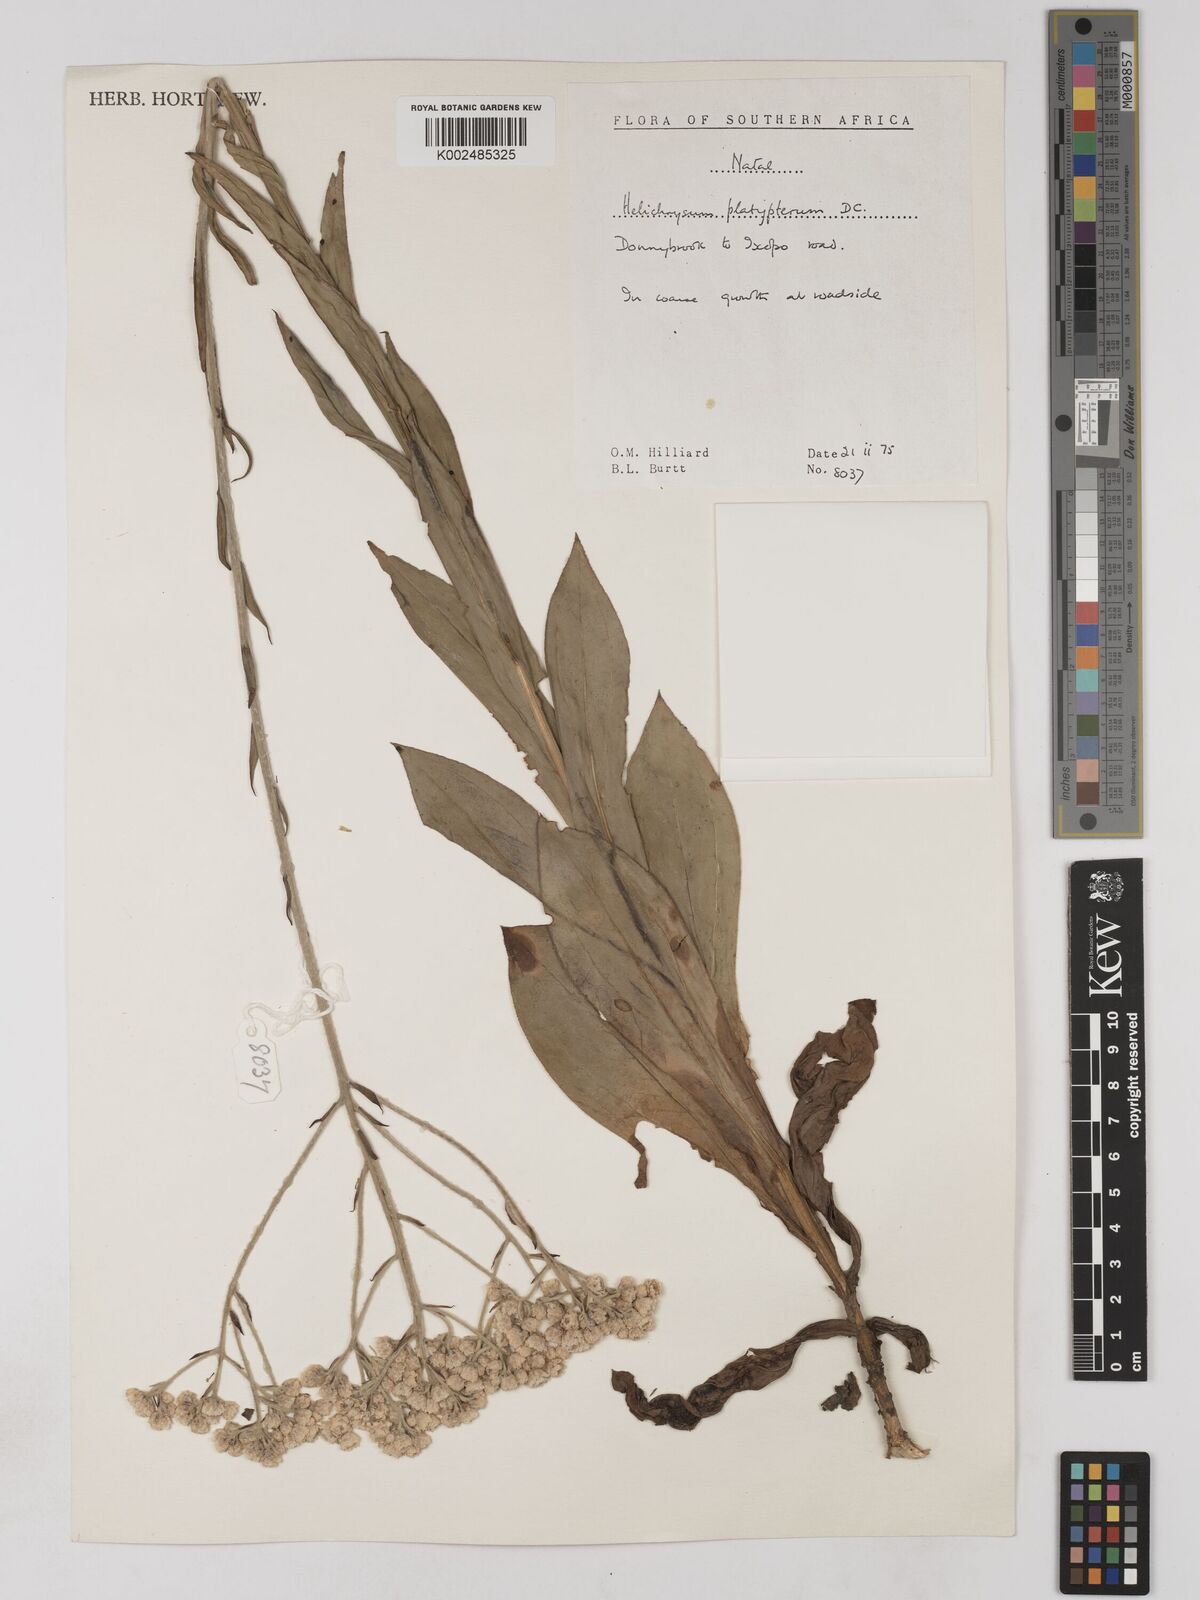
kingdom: Plantae
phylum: Tracheophyta
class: Magnoliopsida
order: Asterales
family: Asteraceae
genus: Helichrysum
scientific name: Helichrysum platypterum
